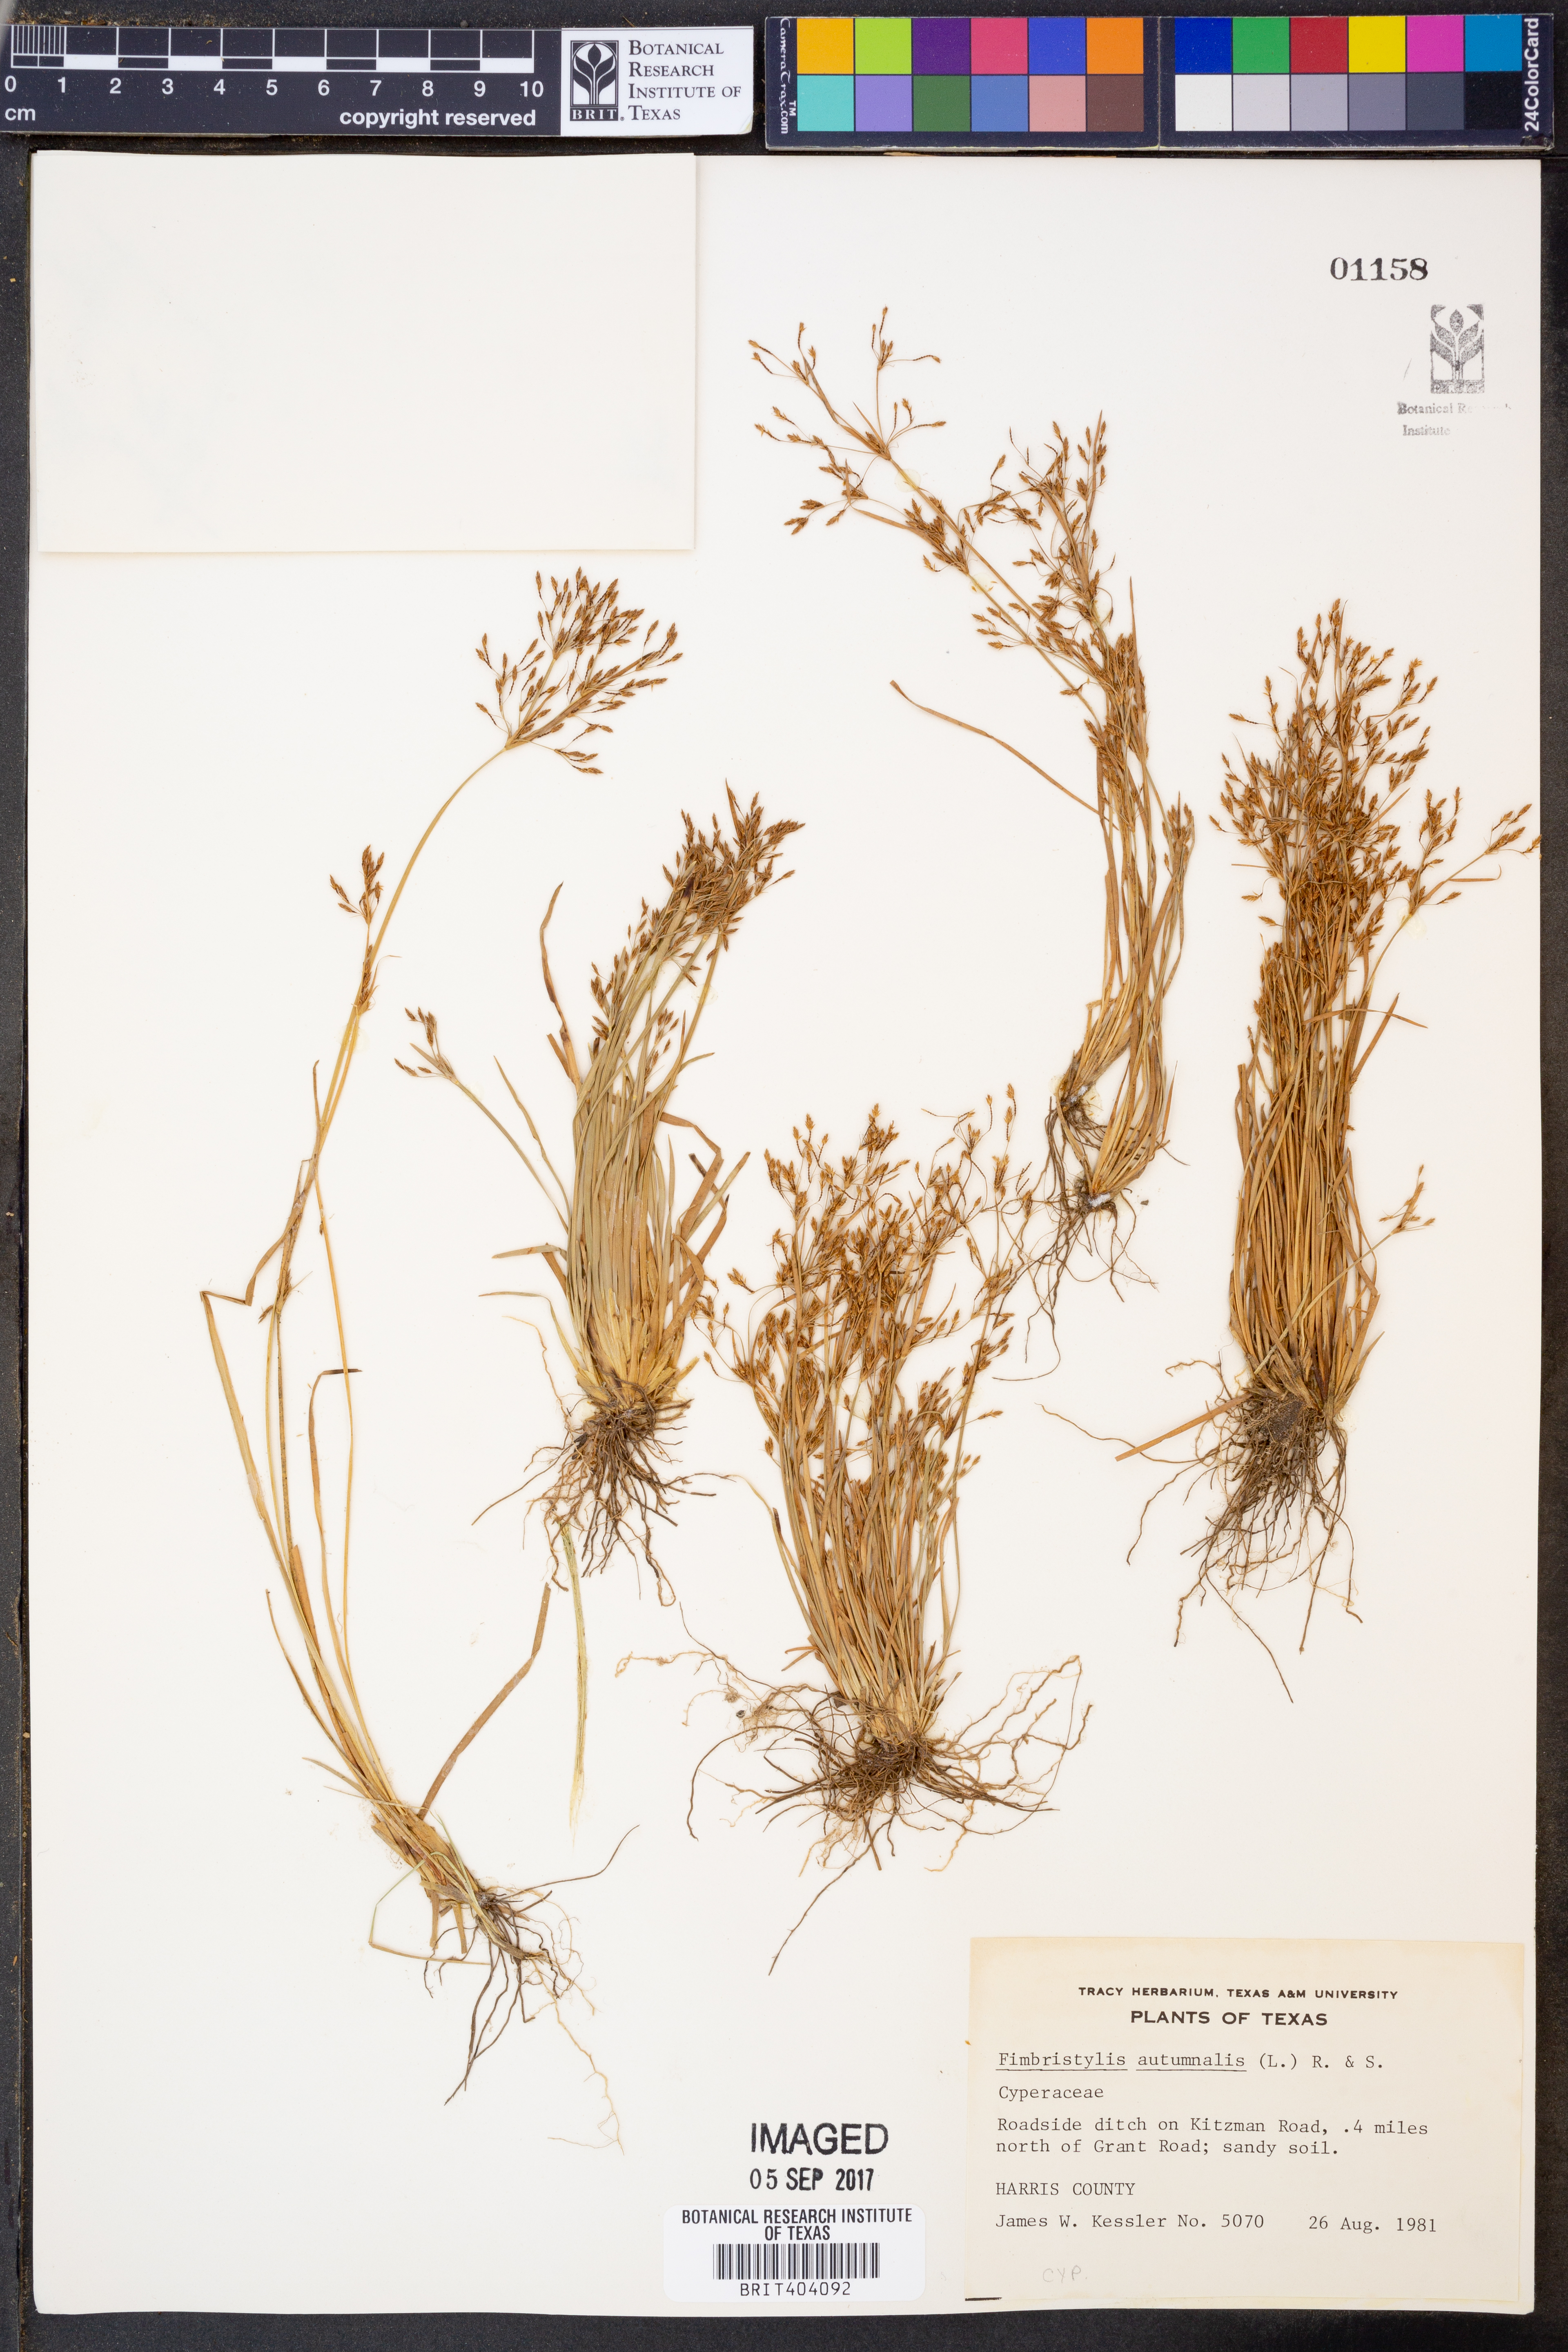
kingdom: Plantae
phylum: Tracheophyta
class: Liliopsida
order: Poales
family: Cyperaceae
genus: Fimbristylis
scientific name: Fimbristylis autumnalis
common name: Slender fimbristylis
